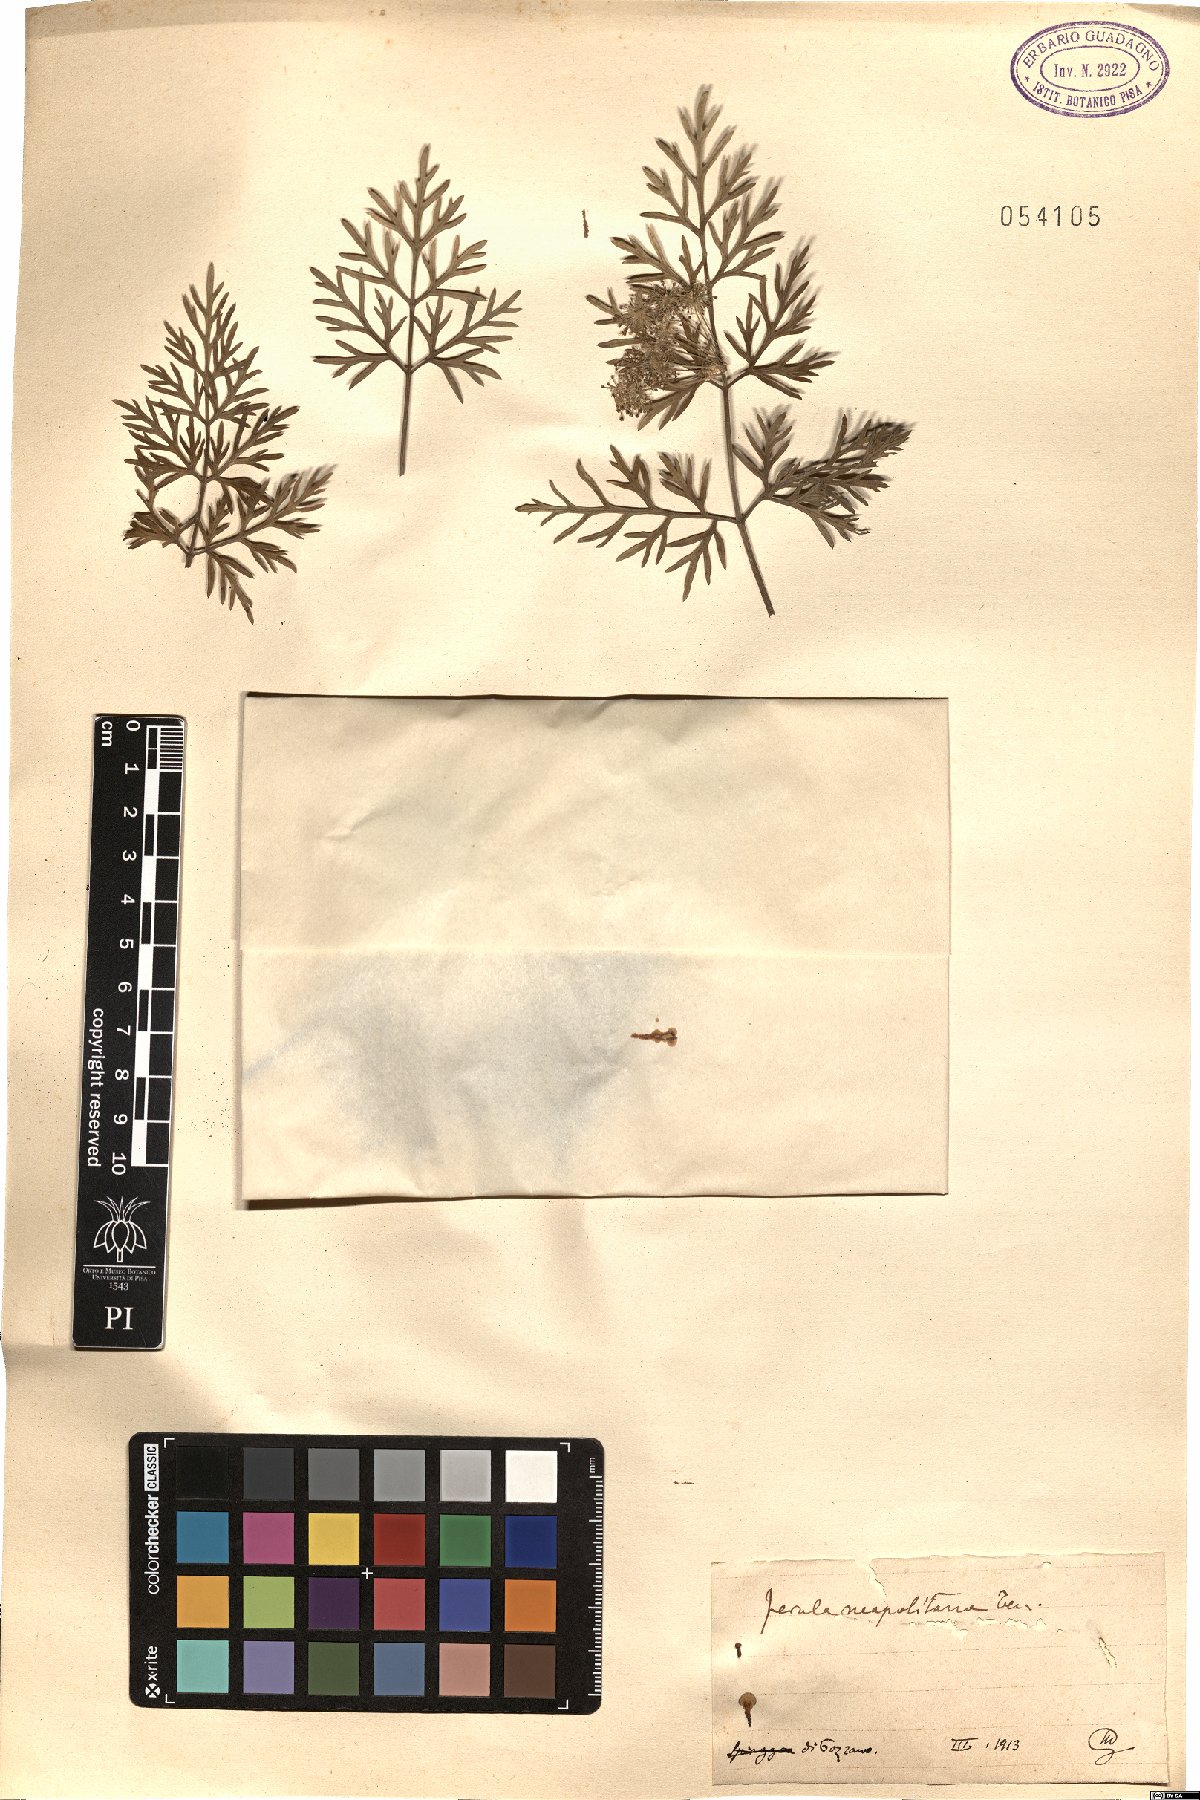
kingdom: Plantae
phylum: Tracheophyta
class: Magnoliopsida
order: Apiales
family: Apiaceae
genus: Ferula
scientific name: Ferula glauca
